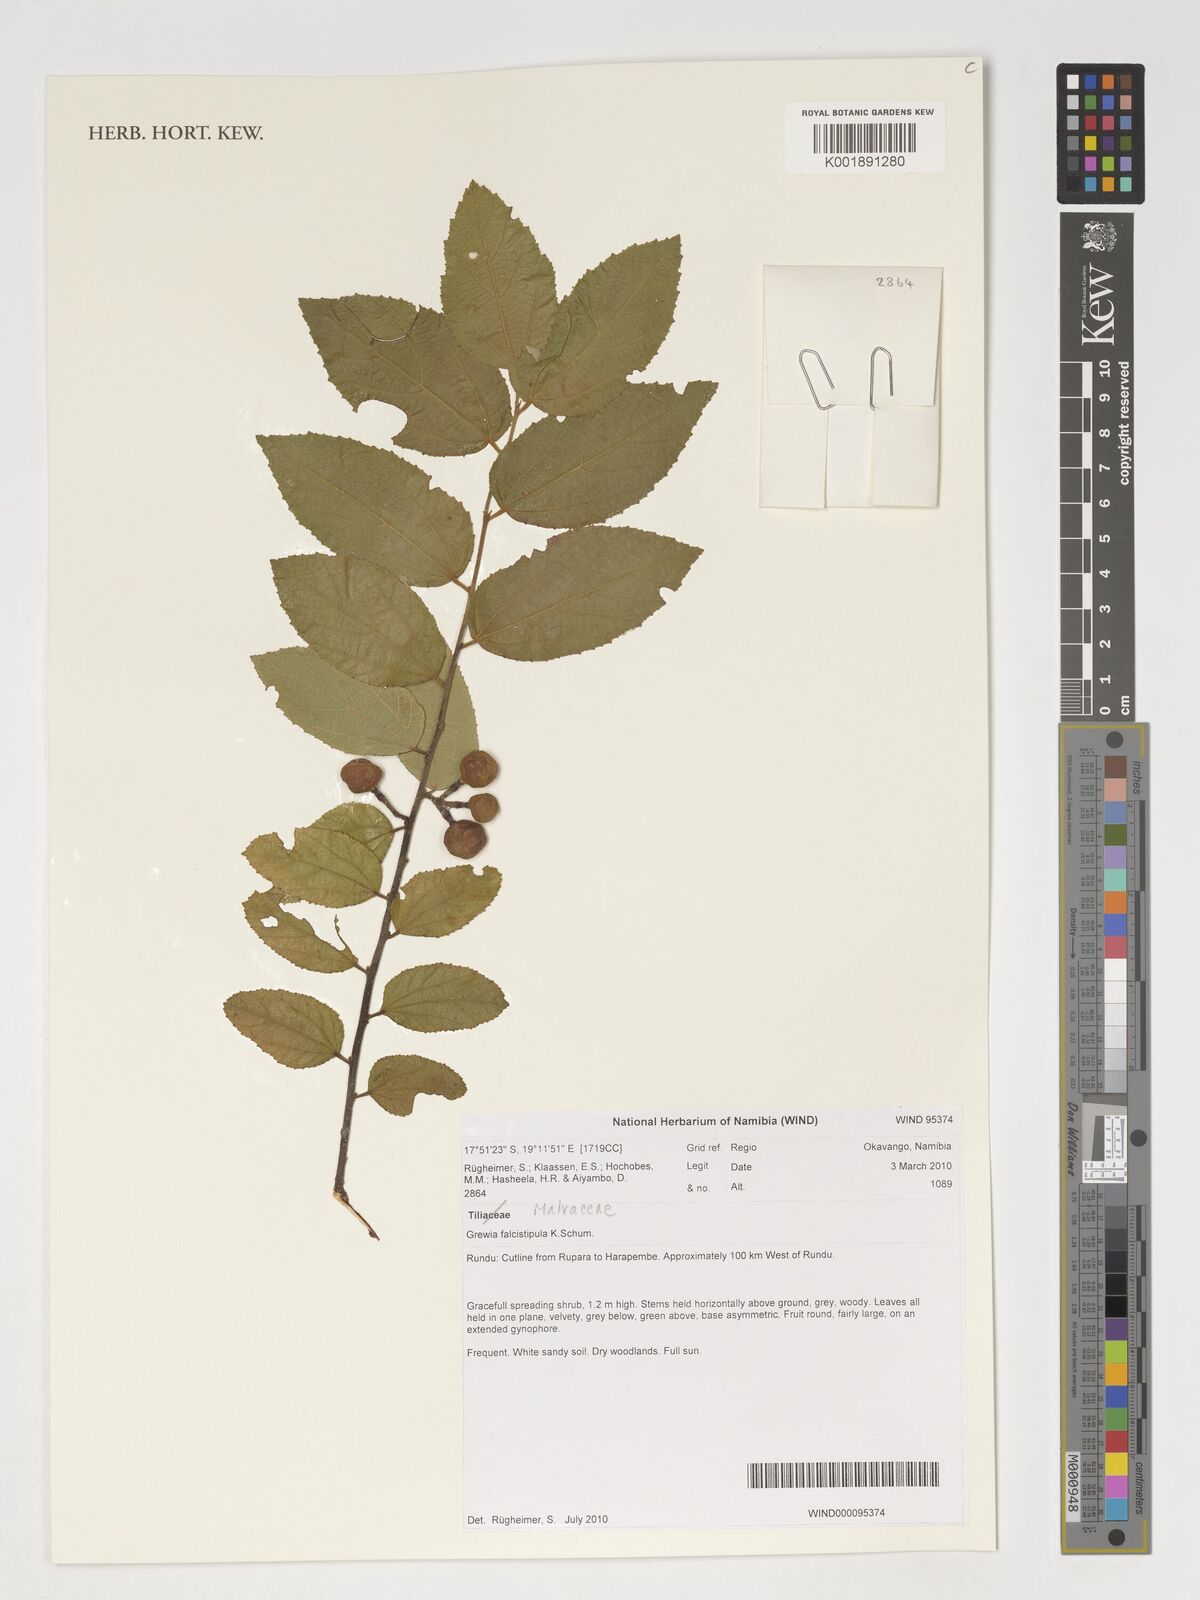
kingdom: Plantae
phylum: Tracheophyta
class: Magnoliopsida
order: Malvales
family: Malvaceae
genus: Grewia
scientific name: Grewia falcistipula
